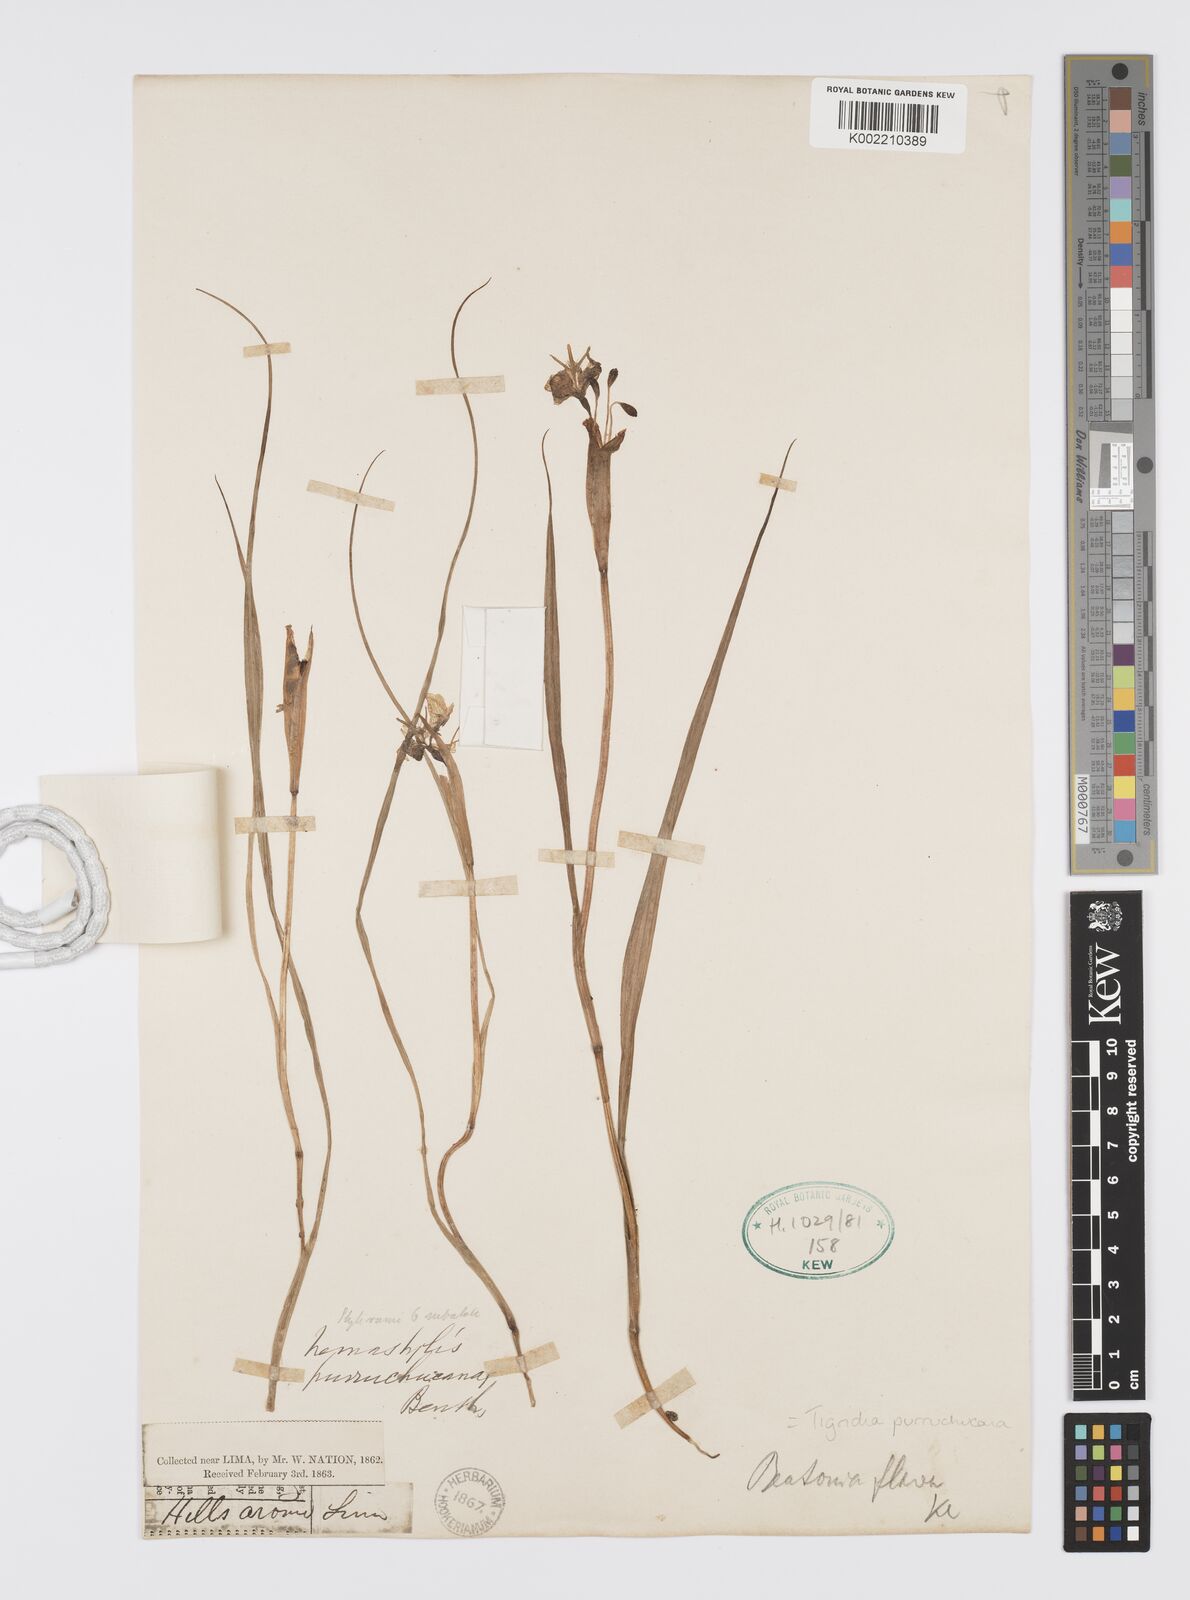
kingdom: Plantae
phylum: Tracheophyta
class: Liliopsida
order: Asparagales
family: Iridaceae
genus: Tigridia
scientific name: Tigridia purruchucana
